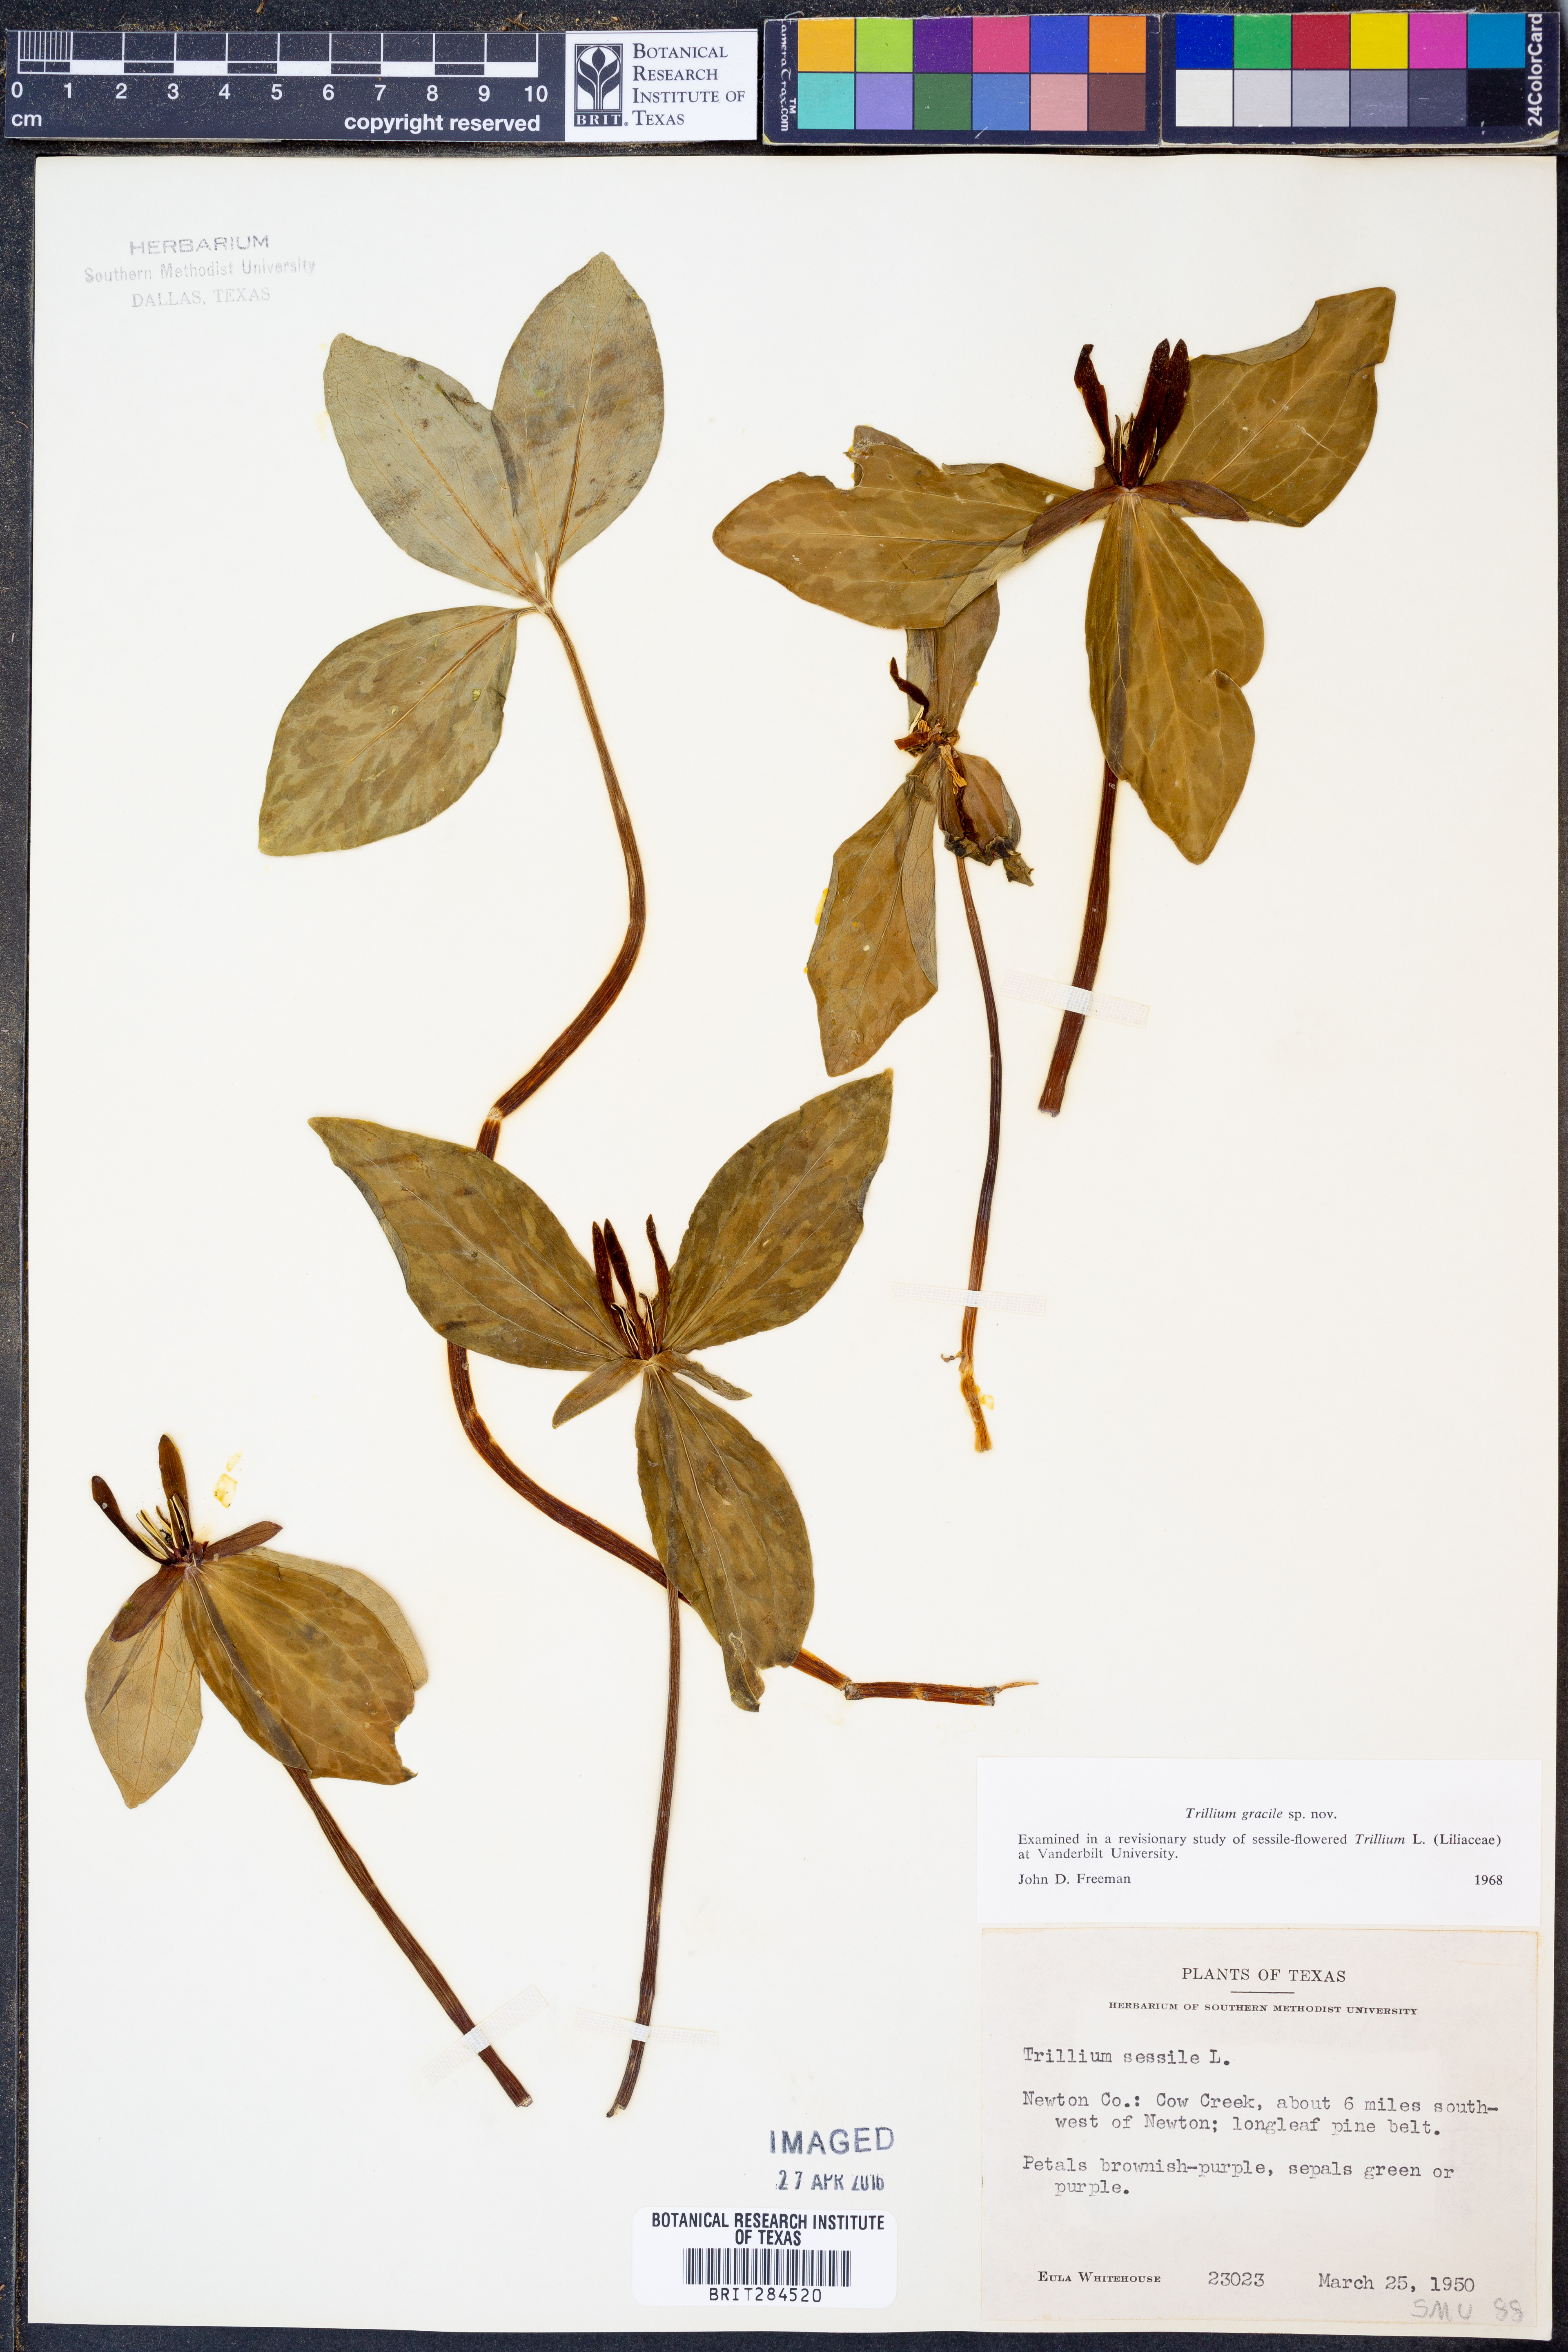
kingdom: Plantae
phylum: Tracheophyta
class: Liliopsida
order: Liliales
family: Melanthiaceae
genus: Trillium
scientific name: Trillium gracile
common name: Graceful trillium
